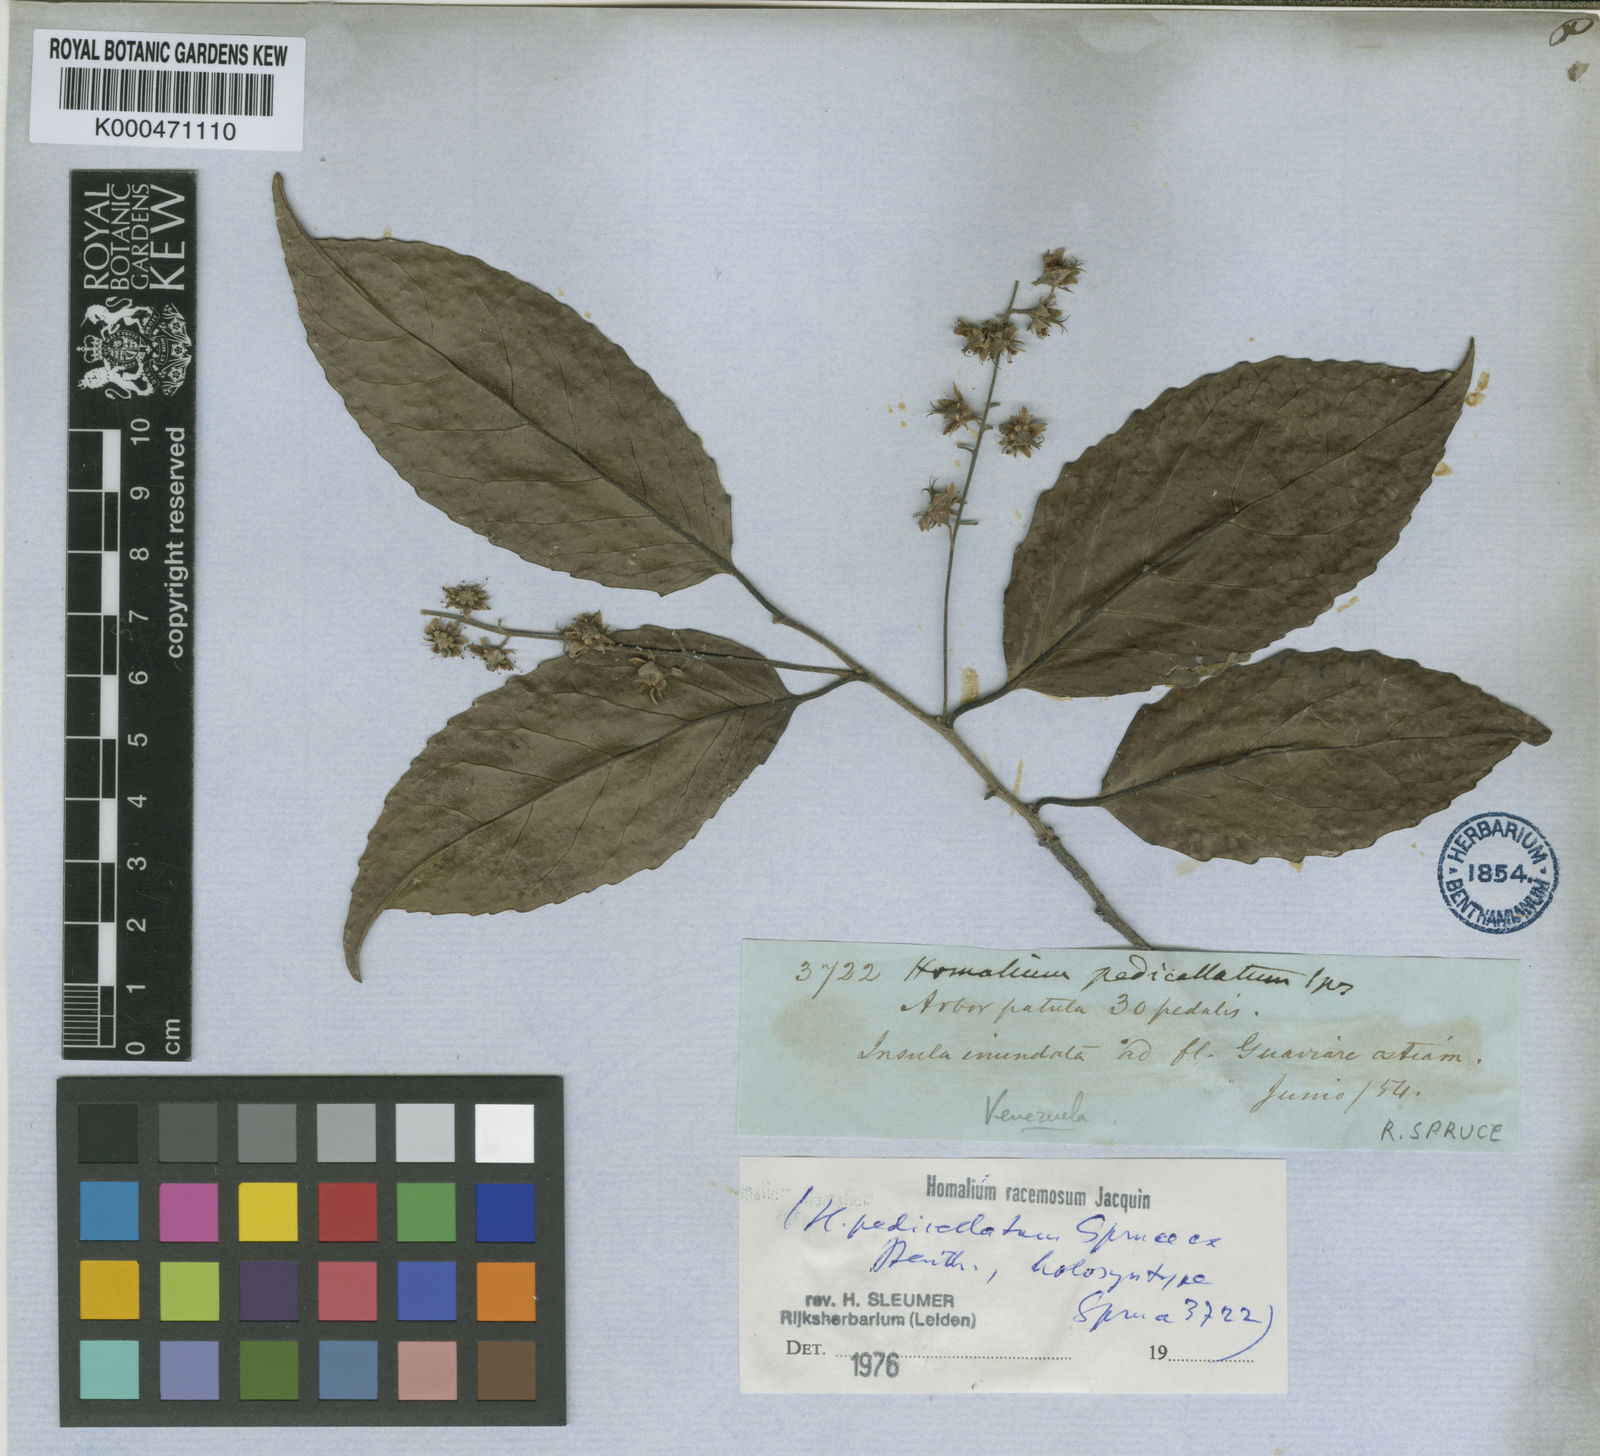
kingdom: Plantae
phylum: Tracheophyta
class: Magnoliopsida
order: Malpighiales
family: Salicaceae
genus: Homalium
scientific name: Homalium racemosum
